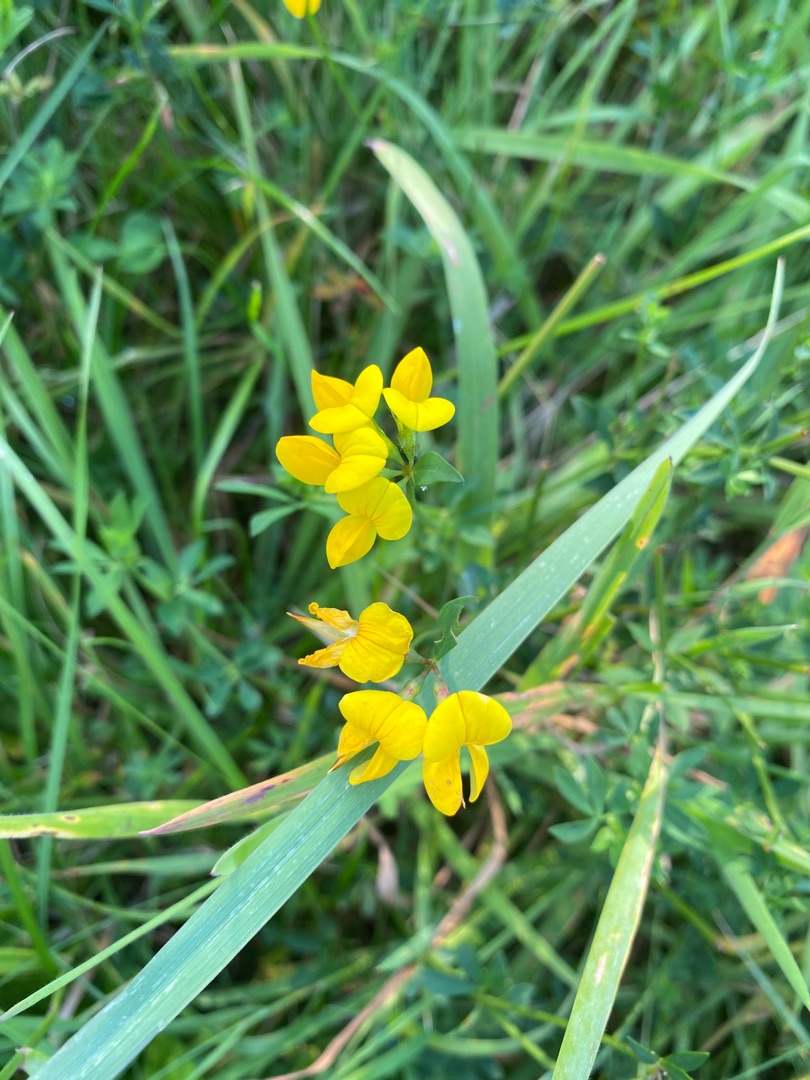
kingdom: Plantae
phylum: Tracheophyta
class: Magnoliopsida
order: Fabales
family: Fabaceae
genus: Lotus
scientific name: Lotus corniculatus
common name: Almindelig kællingetand
